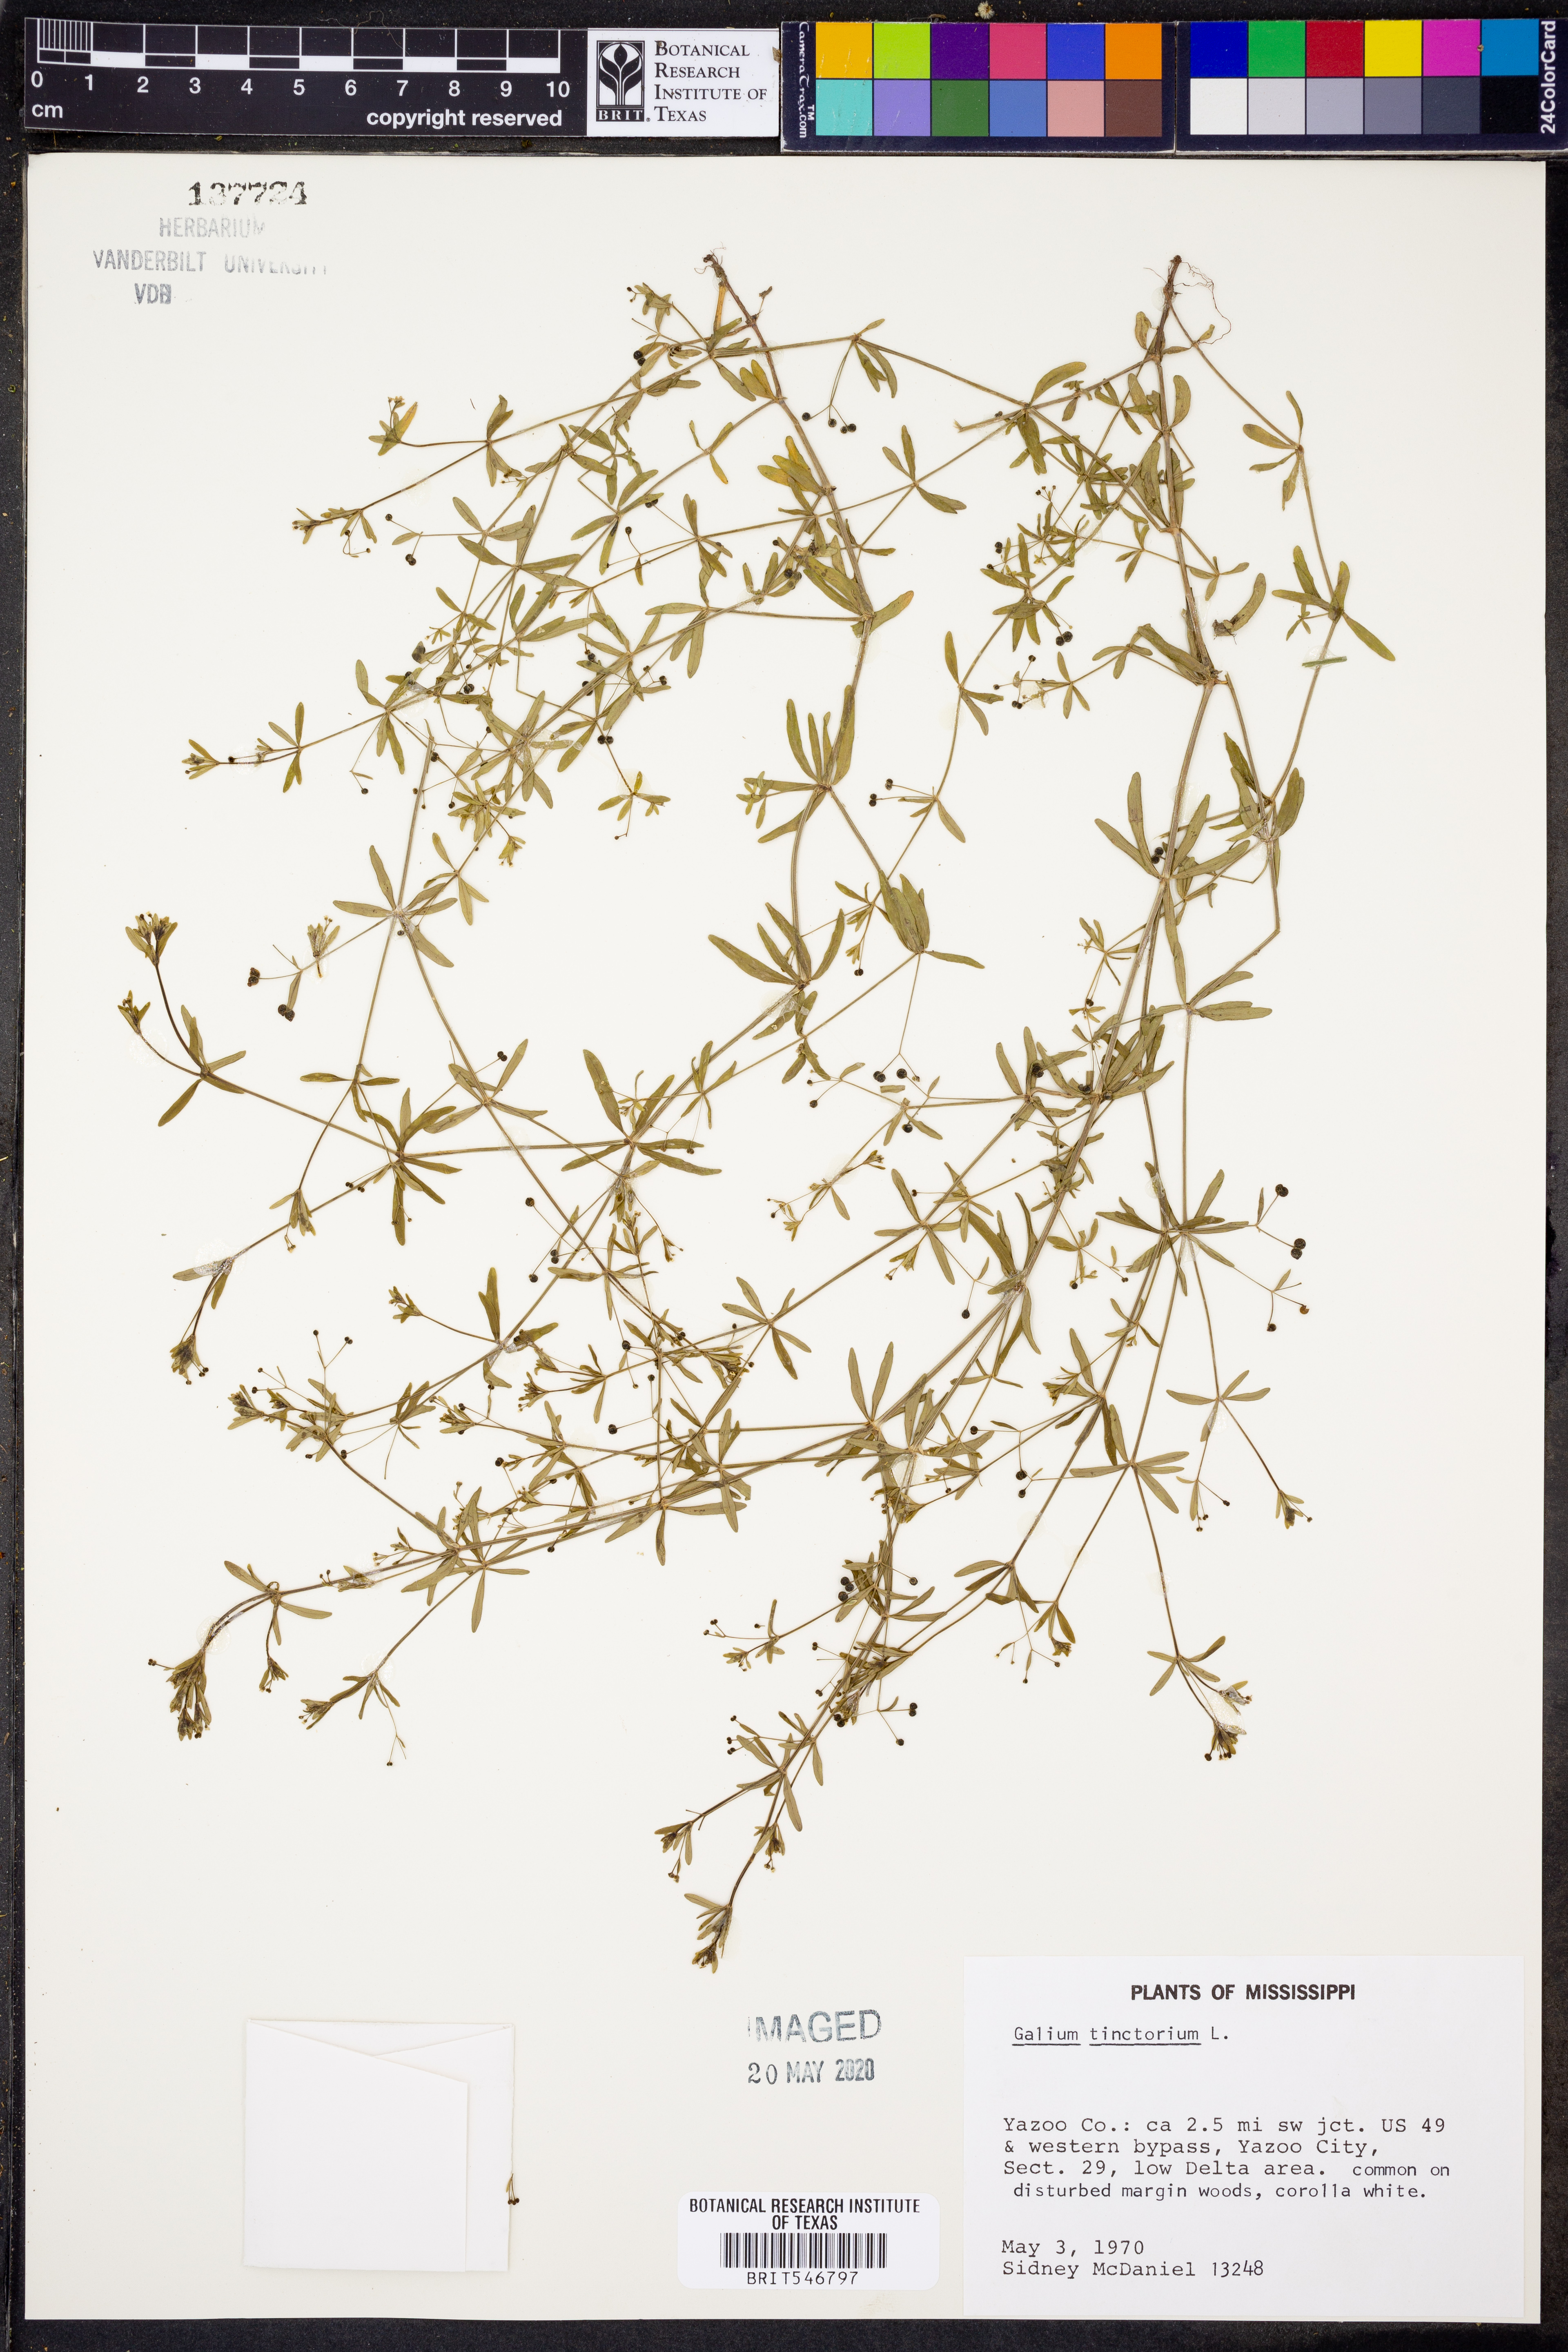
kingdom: Plantae
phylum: Tracheophyta
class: Magnoliopsida
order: Gentianales
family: Rubiaceae
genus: Asperula
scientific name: Asperula tinctoria
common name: Dyer's woodruff
